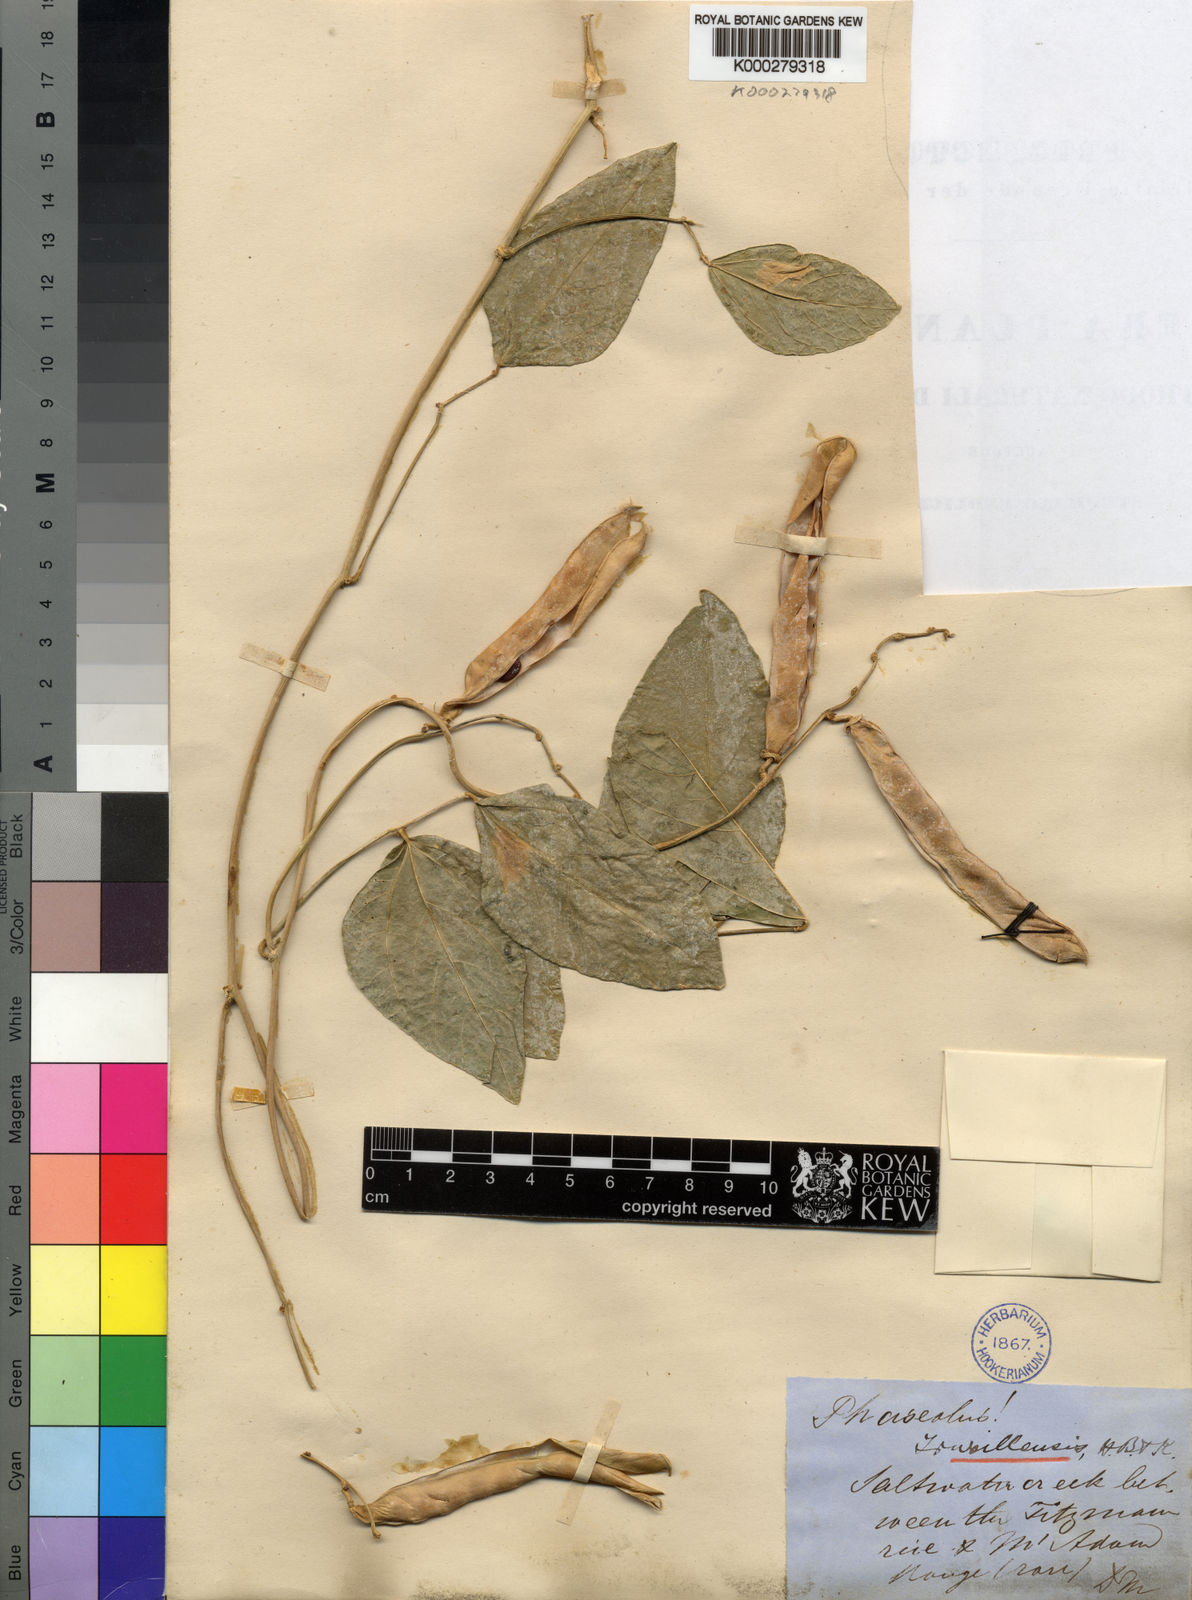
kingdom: Plantae
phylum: Tracheophyta
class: Magnoliopsida
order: Fabales
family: Fabaceae
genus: Vigna
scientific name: Vigna truxillensis
